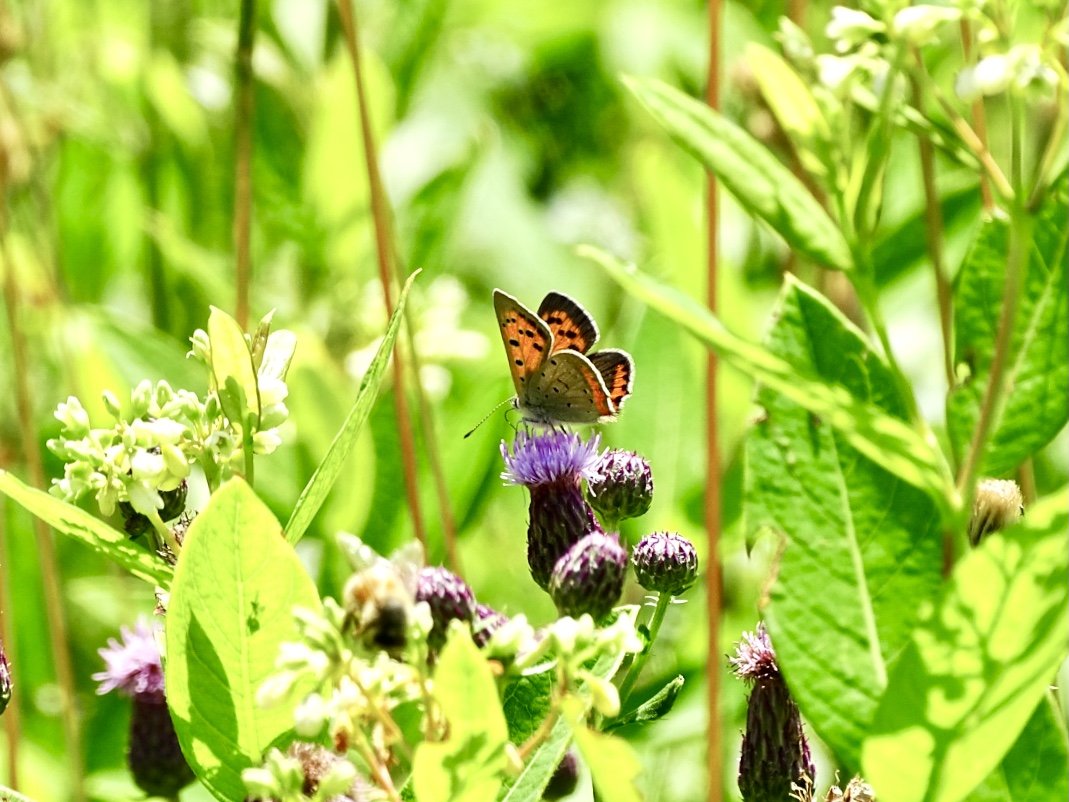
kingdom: Animalia
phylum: Arthropoda
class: Insecta
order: Lepidoptera
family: Lycaenidae
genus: Lycaena
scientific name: Lycaena phlaeas
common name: American Copper
